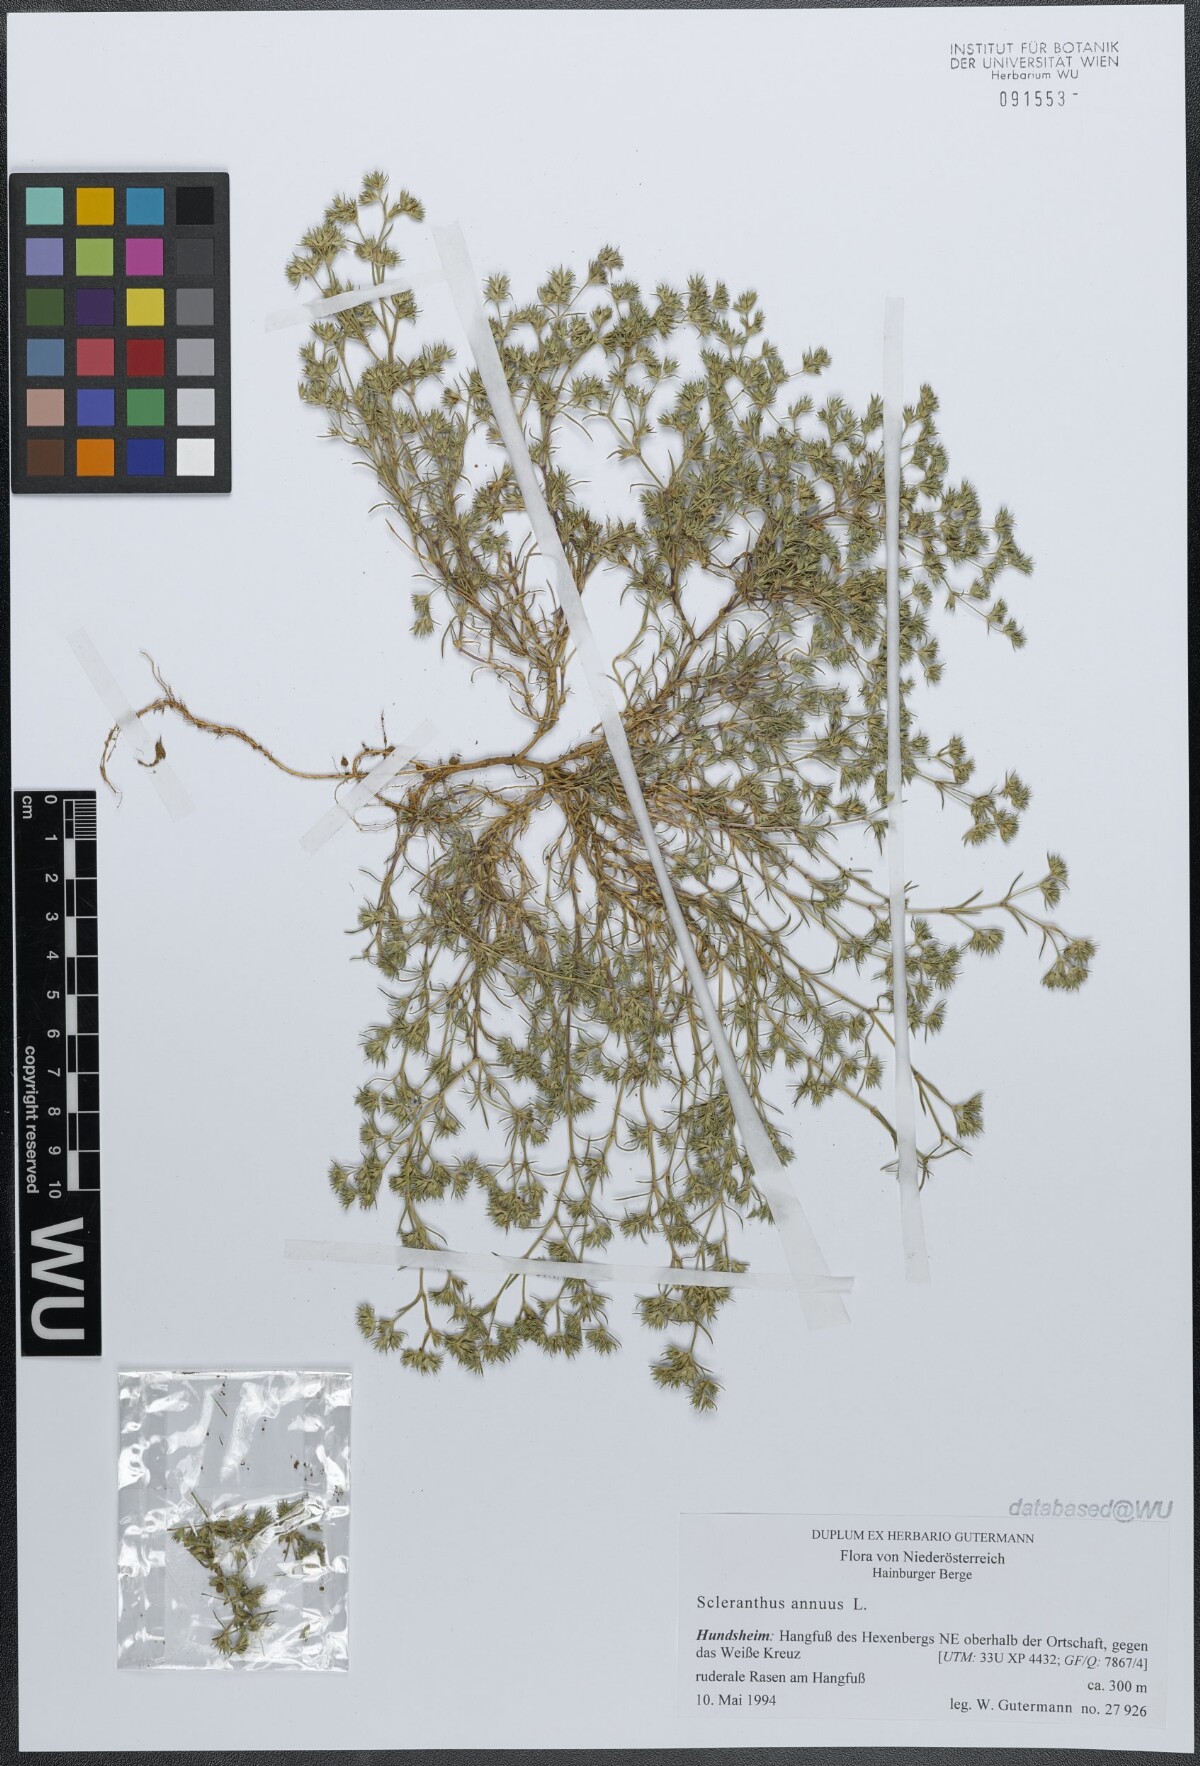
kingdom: Plantae
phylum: Tracheophyta
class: Magnoliopsida
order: Caryophyllales
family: Caryophyllaceae
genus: Scleranthus
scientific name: Scleranthus annuus
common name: Annual knawel
